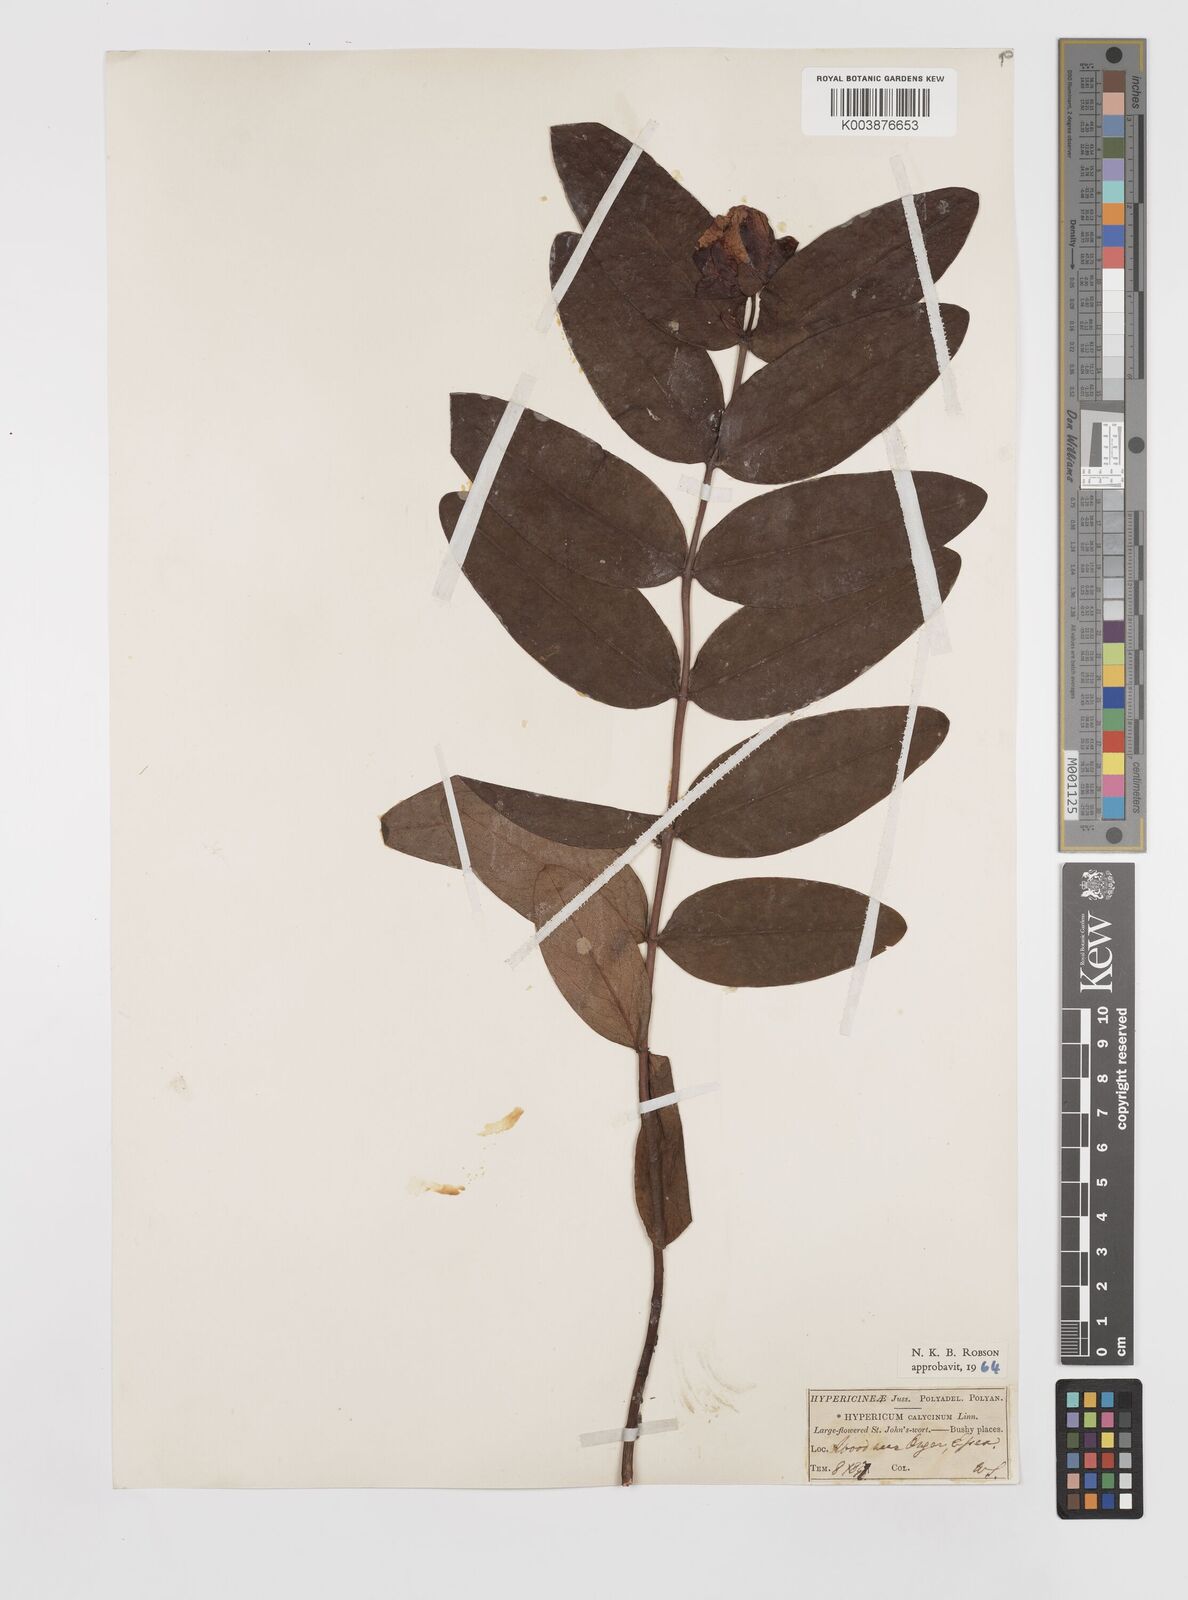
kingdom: Plantae
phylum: Tracheophyta
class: Magnoliopsida
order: Malpighiales
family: Hypericaceae
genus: Hypericum
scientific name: Hypericum calycinum
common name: Rose-of-sharon
